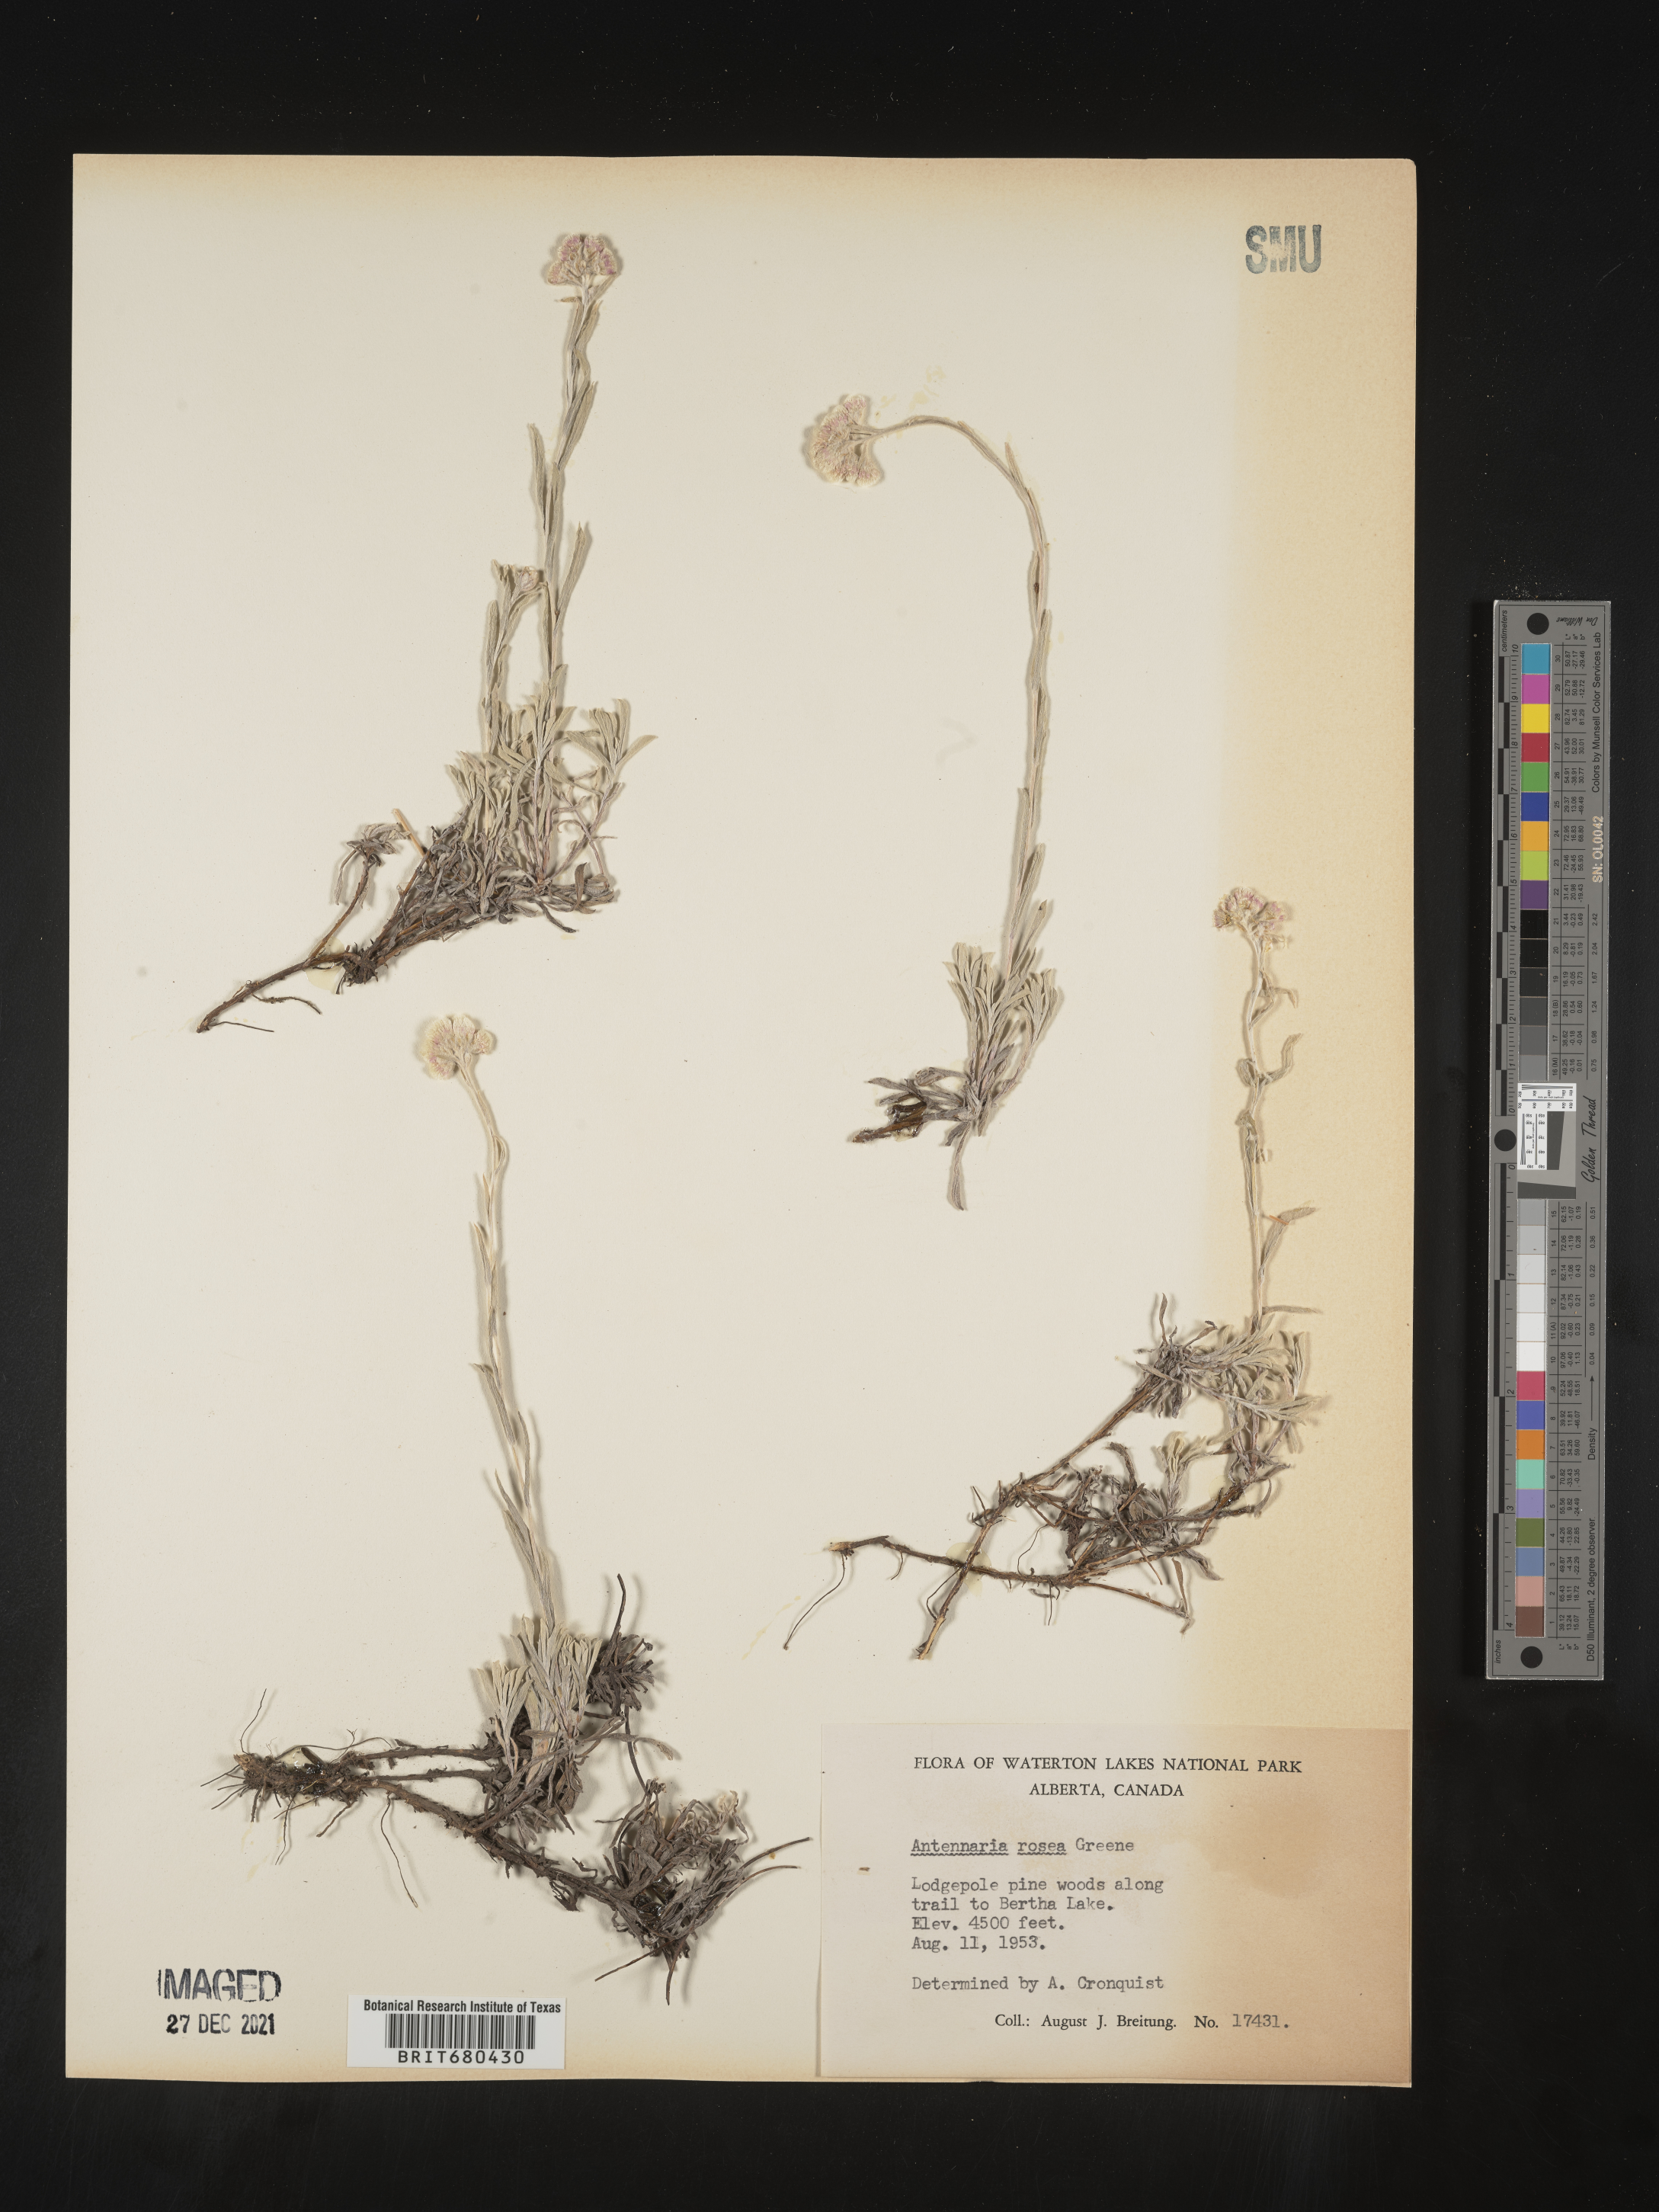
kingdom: Plantae
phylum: Tracheophyta
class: Magnoliopsida
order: Asterales
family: Asteraceae
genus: Antennaria
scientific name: Antennaria rosea
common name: Rosy pussytoes
